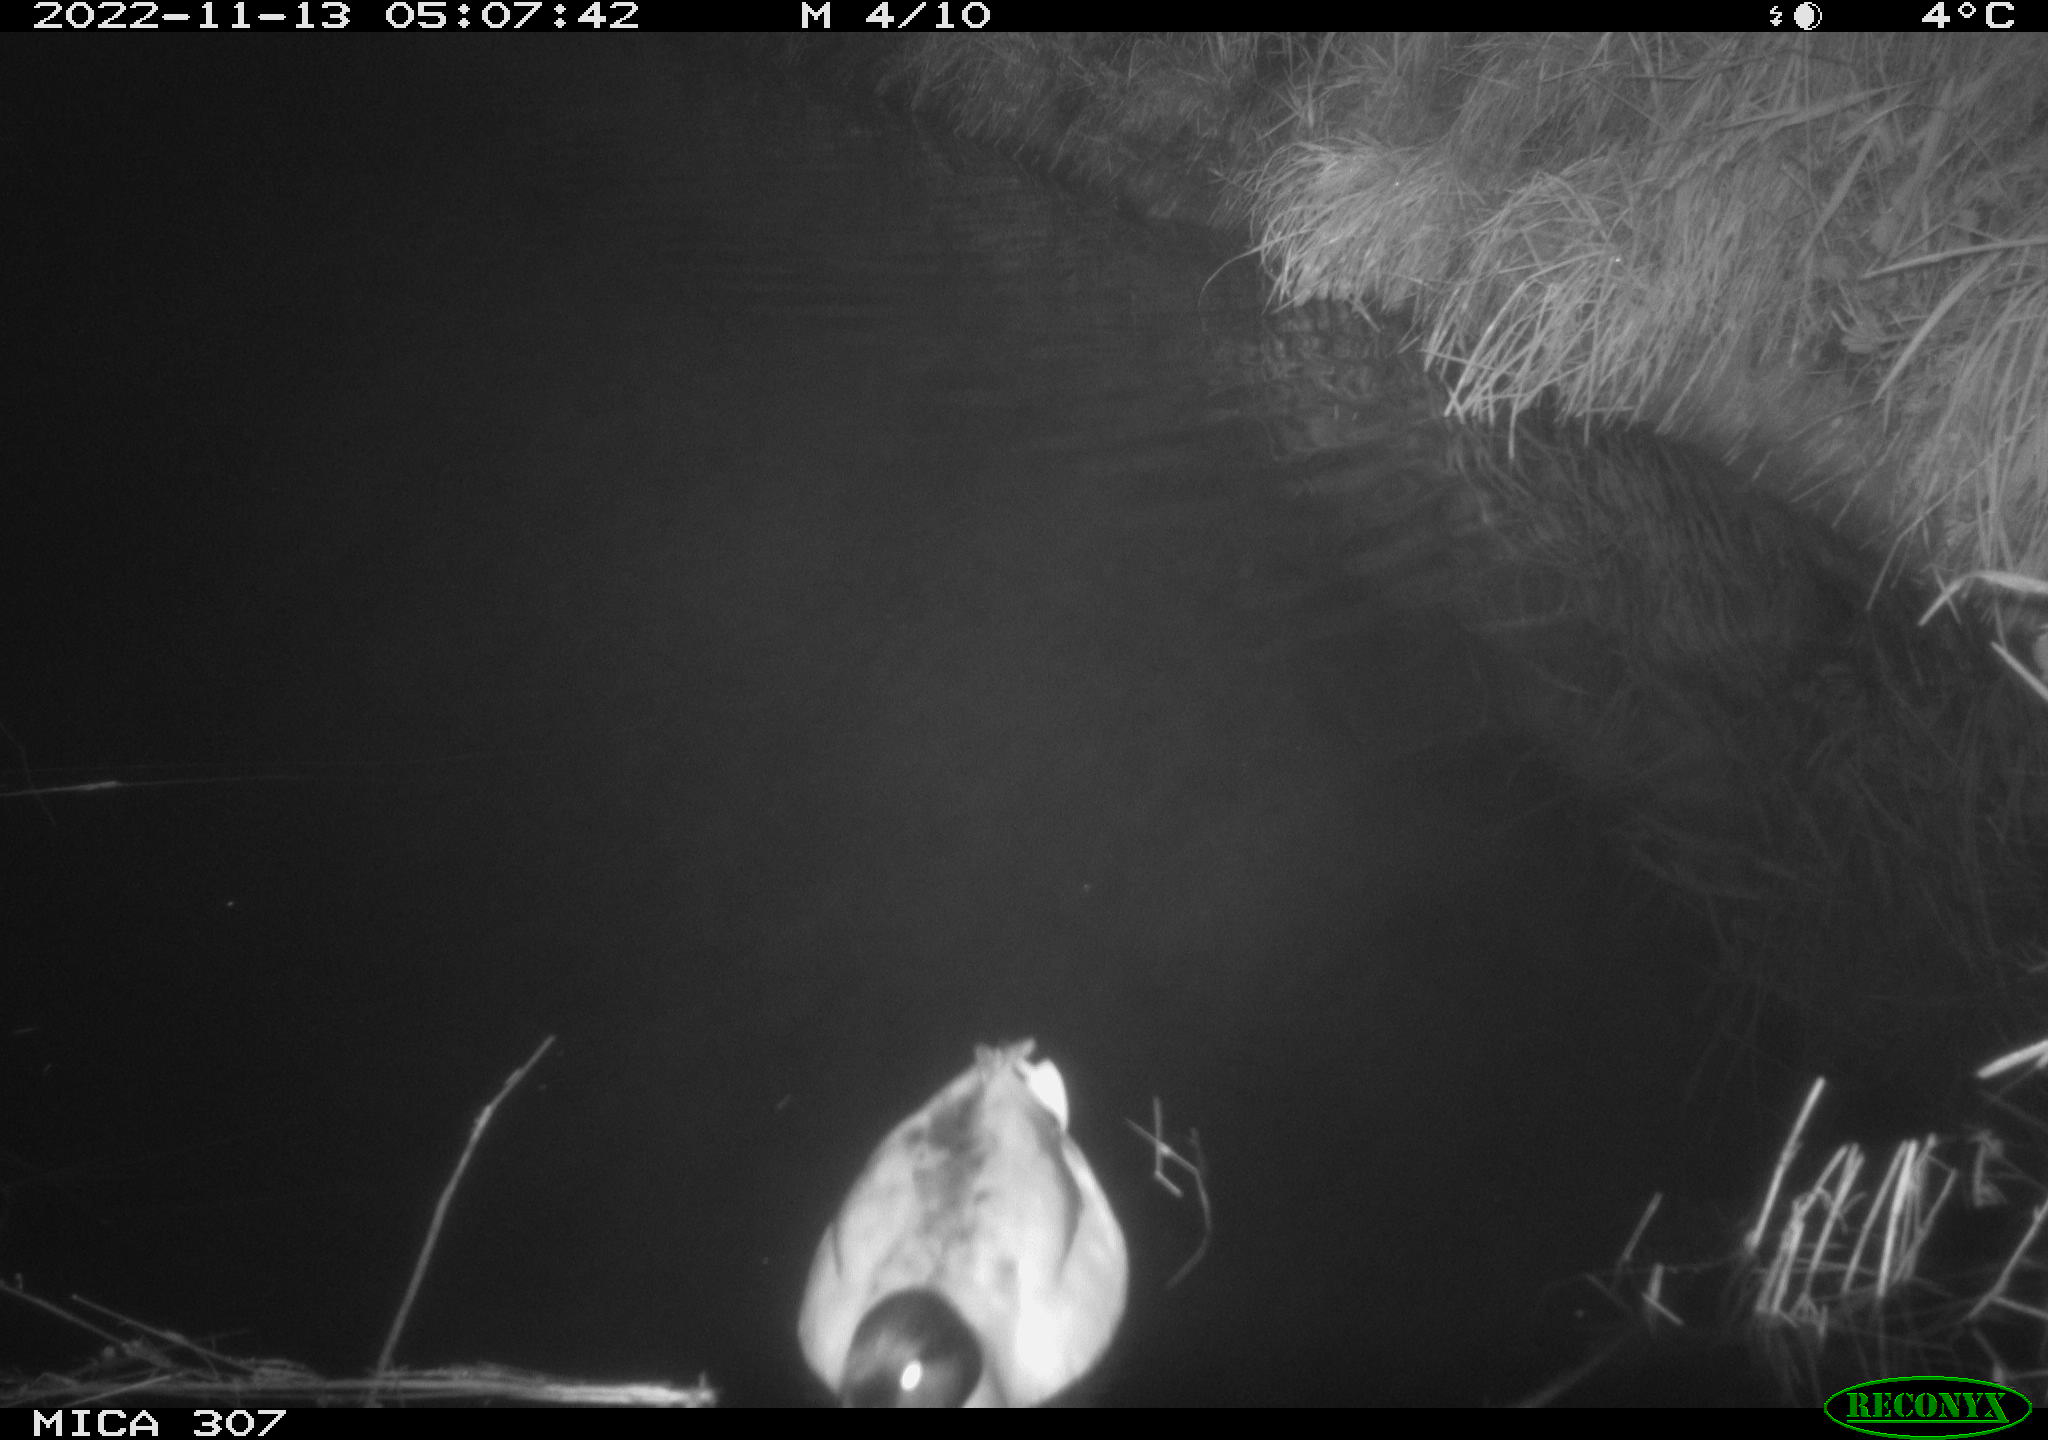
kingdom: Animalia
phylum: Chordata
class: Aves
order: Anseriformes
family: Anatidae
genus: Anas
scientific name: Anas
